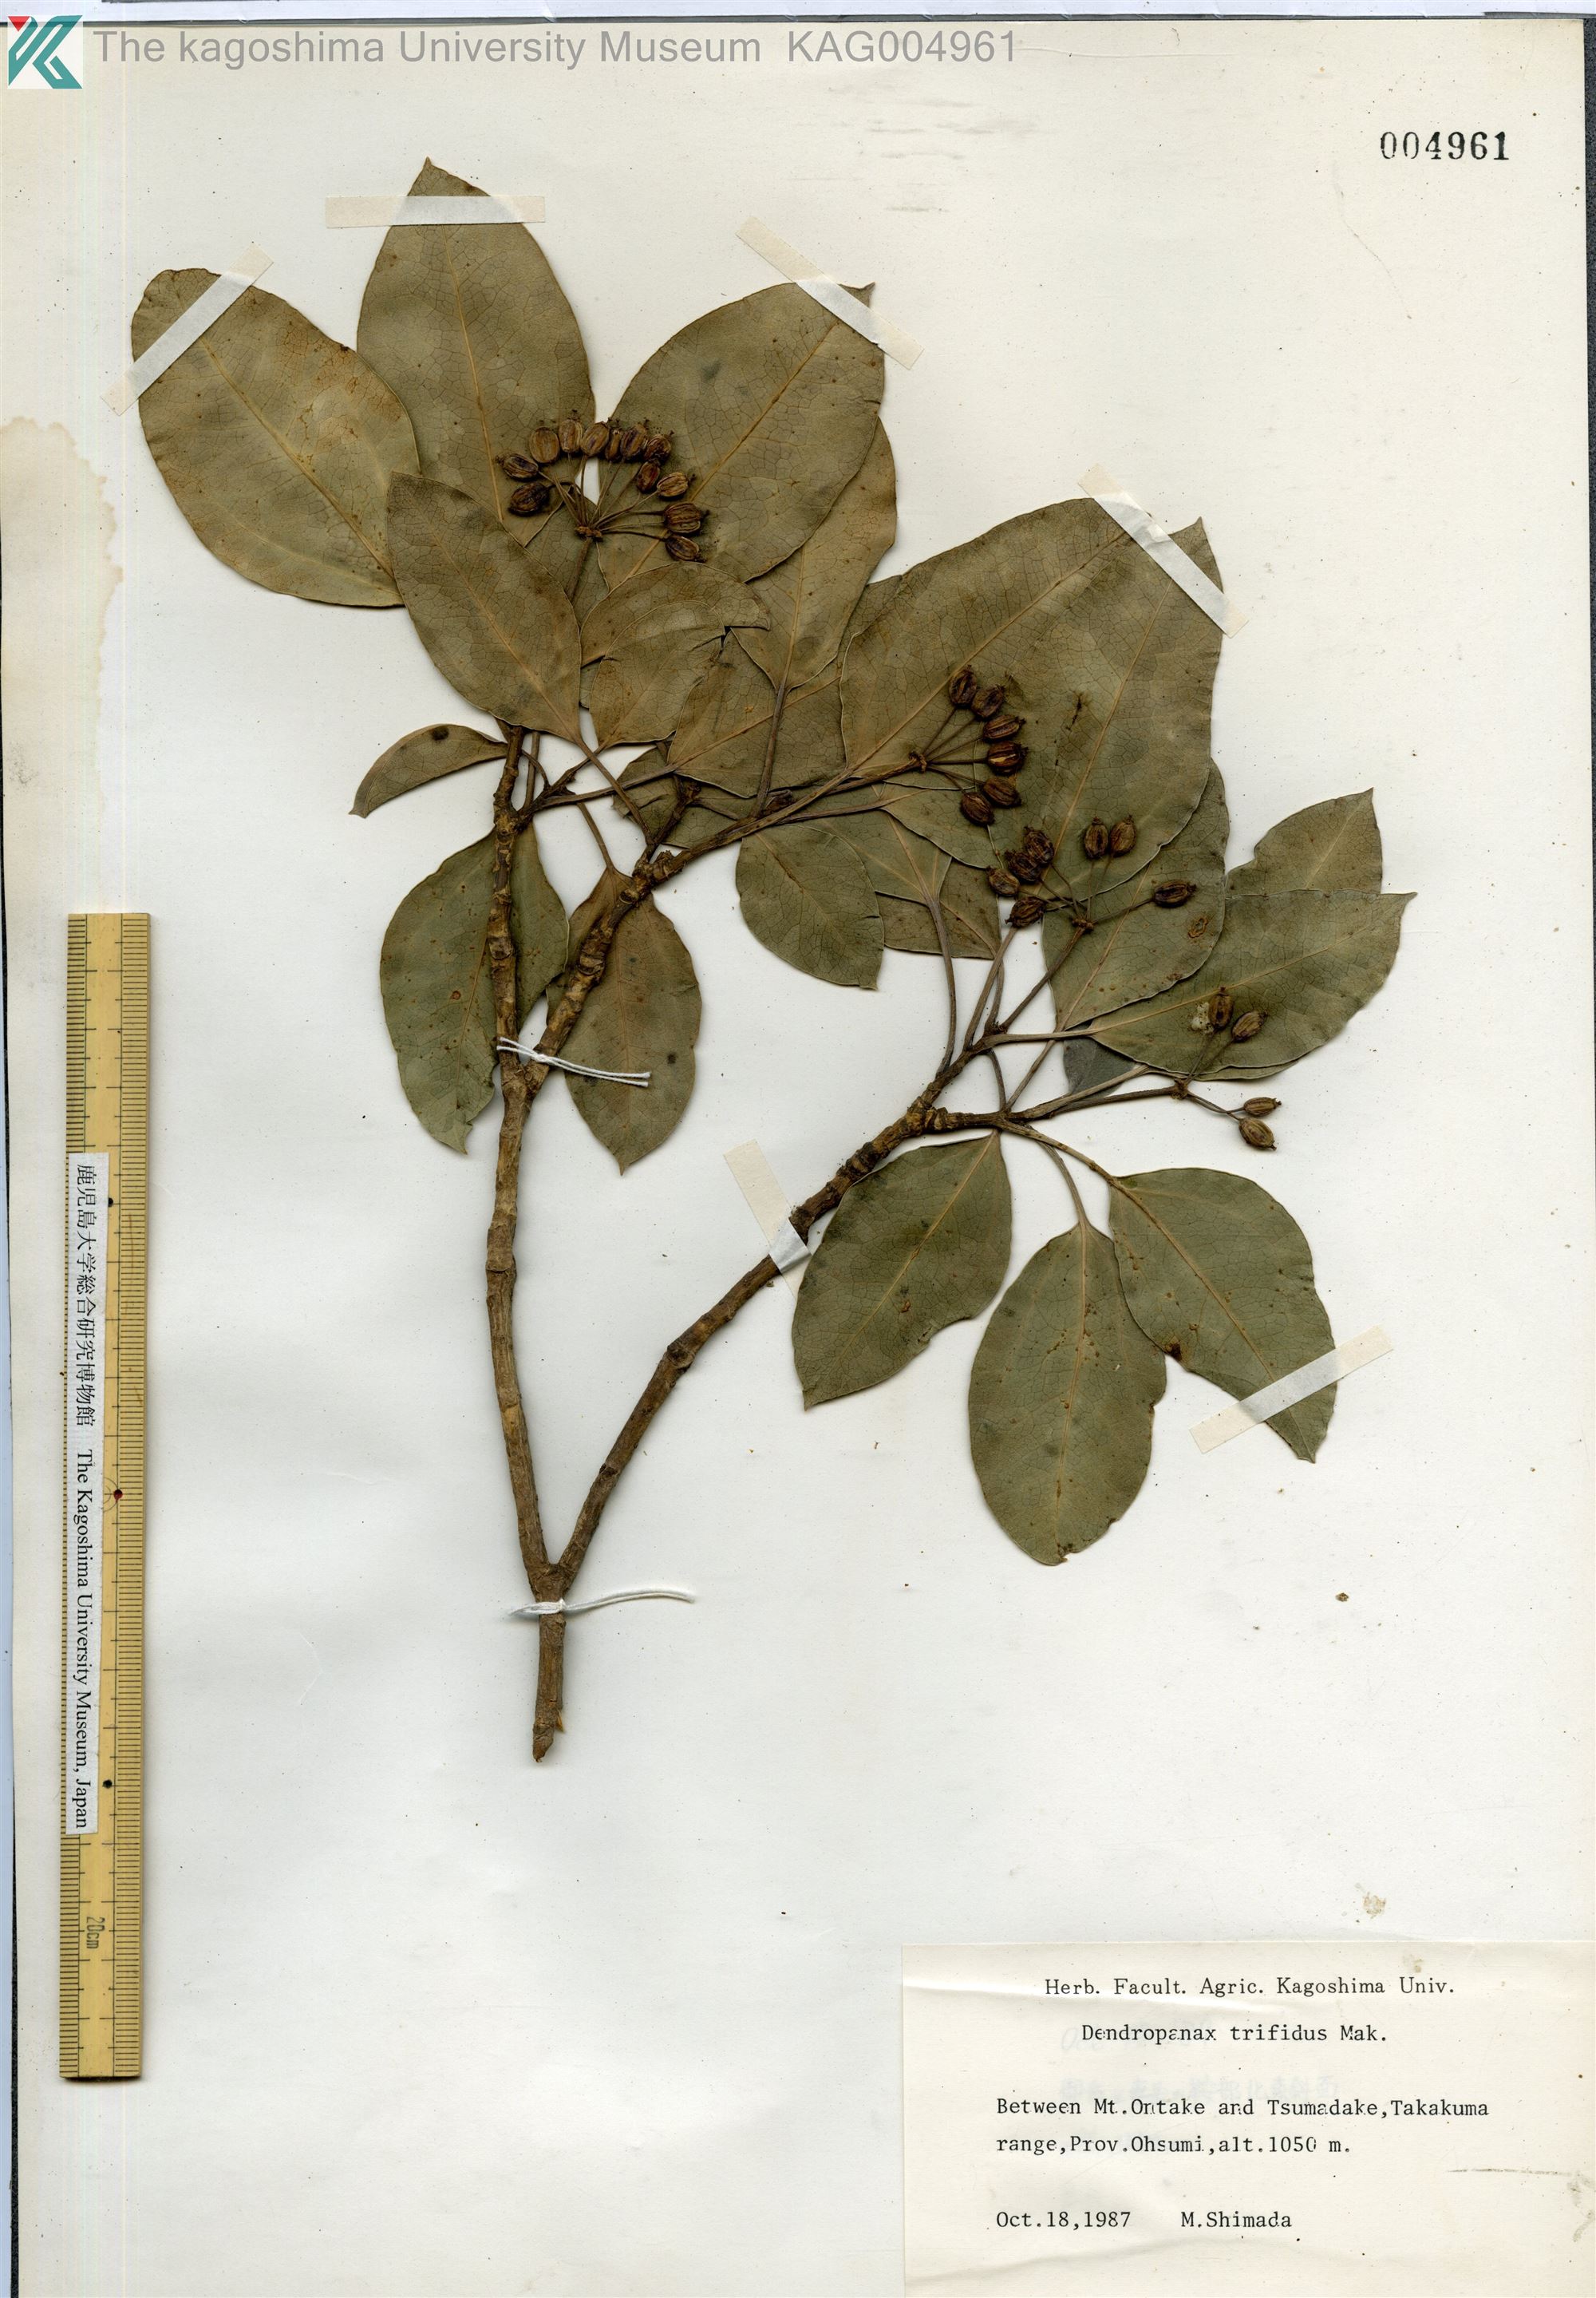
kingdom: Plantae
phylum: Tracheophyta
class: Magnoliopsida
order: Apiales
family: Araliaceae
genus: Dendropanax
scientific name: Dendropanax trifidus
